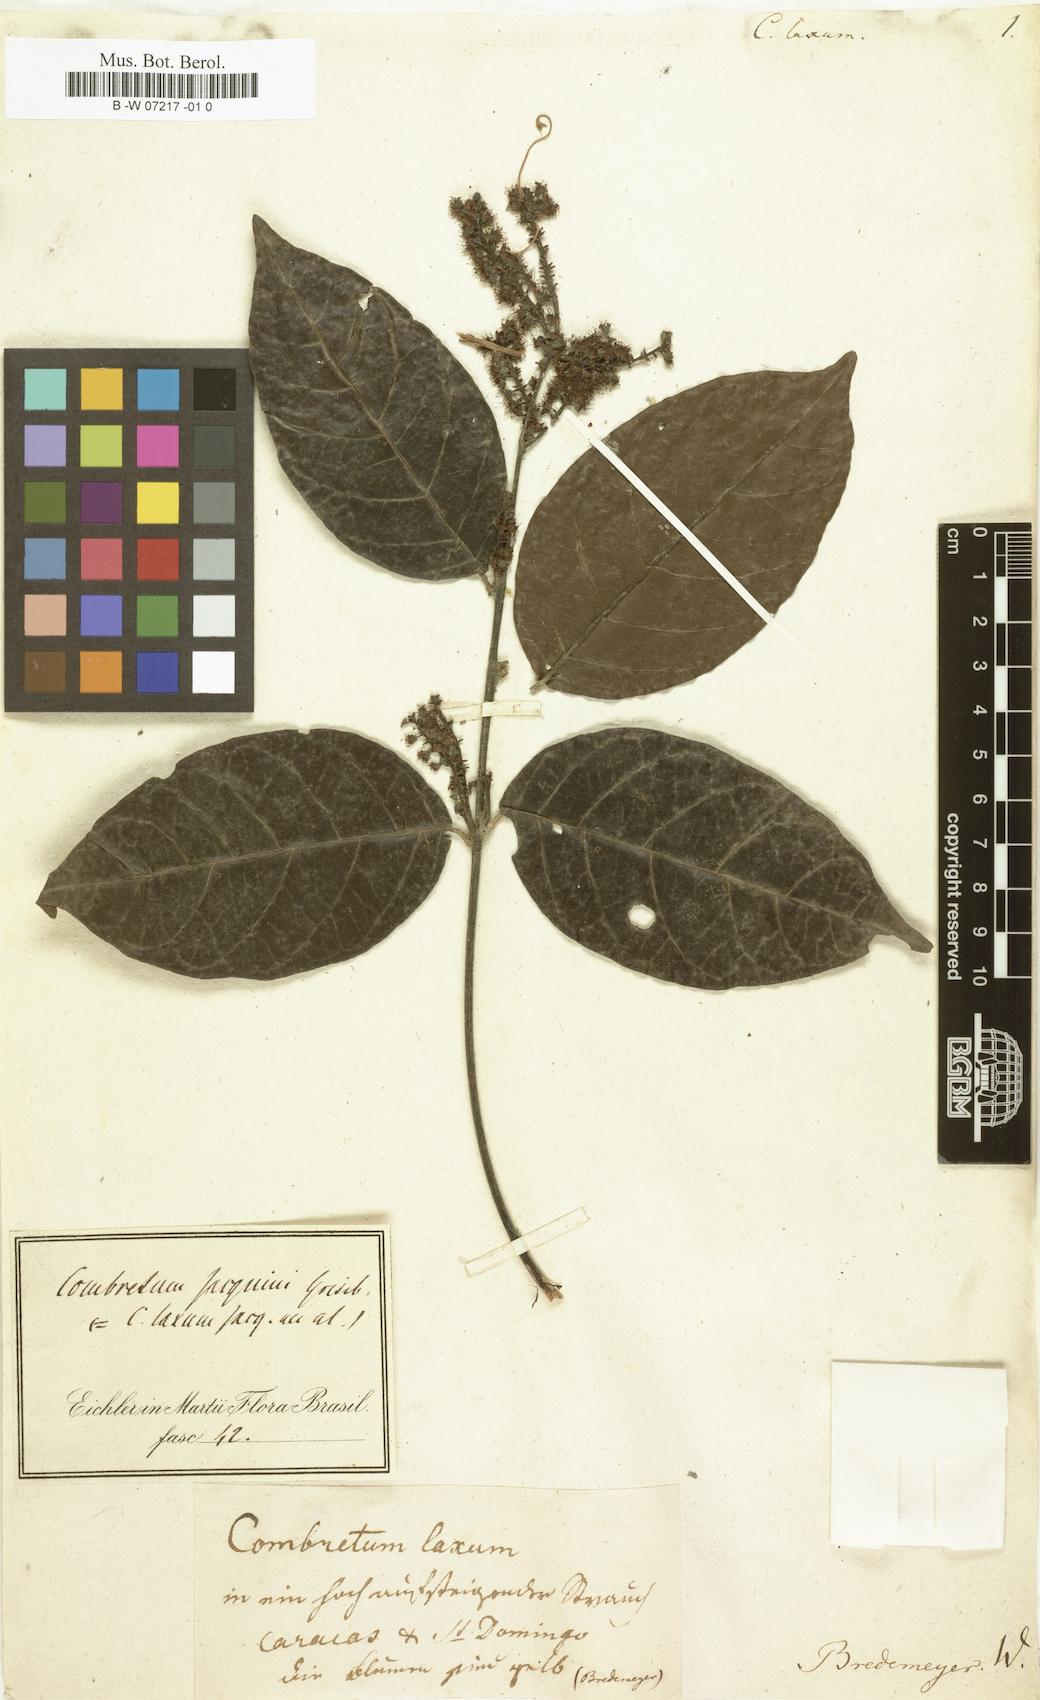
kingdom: Plantae
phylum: Tracheophyta
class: Magnoliopsida
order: Myrtales
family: Combretaceae
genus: Combretum
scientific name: Combretum laxum
